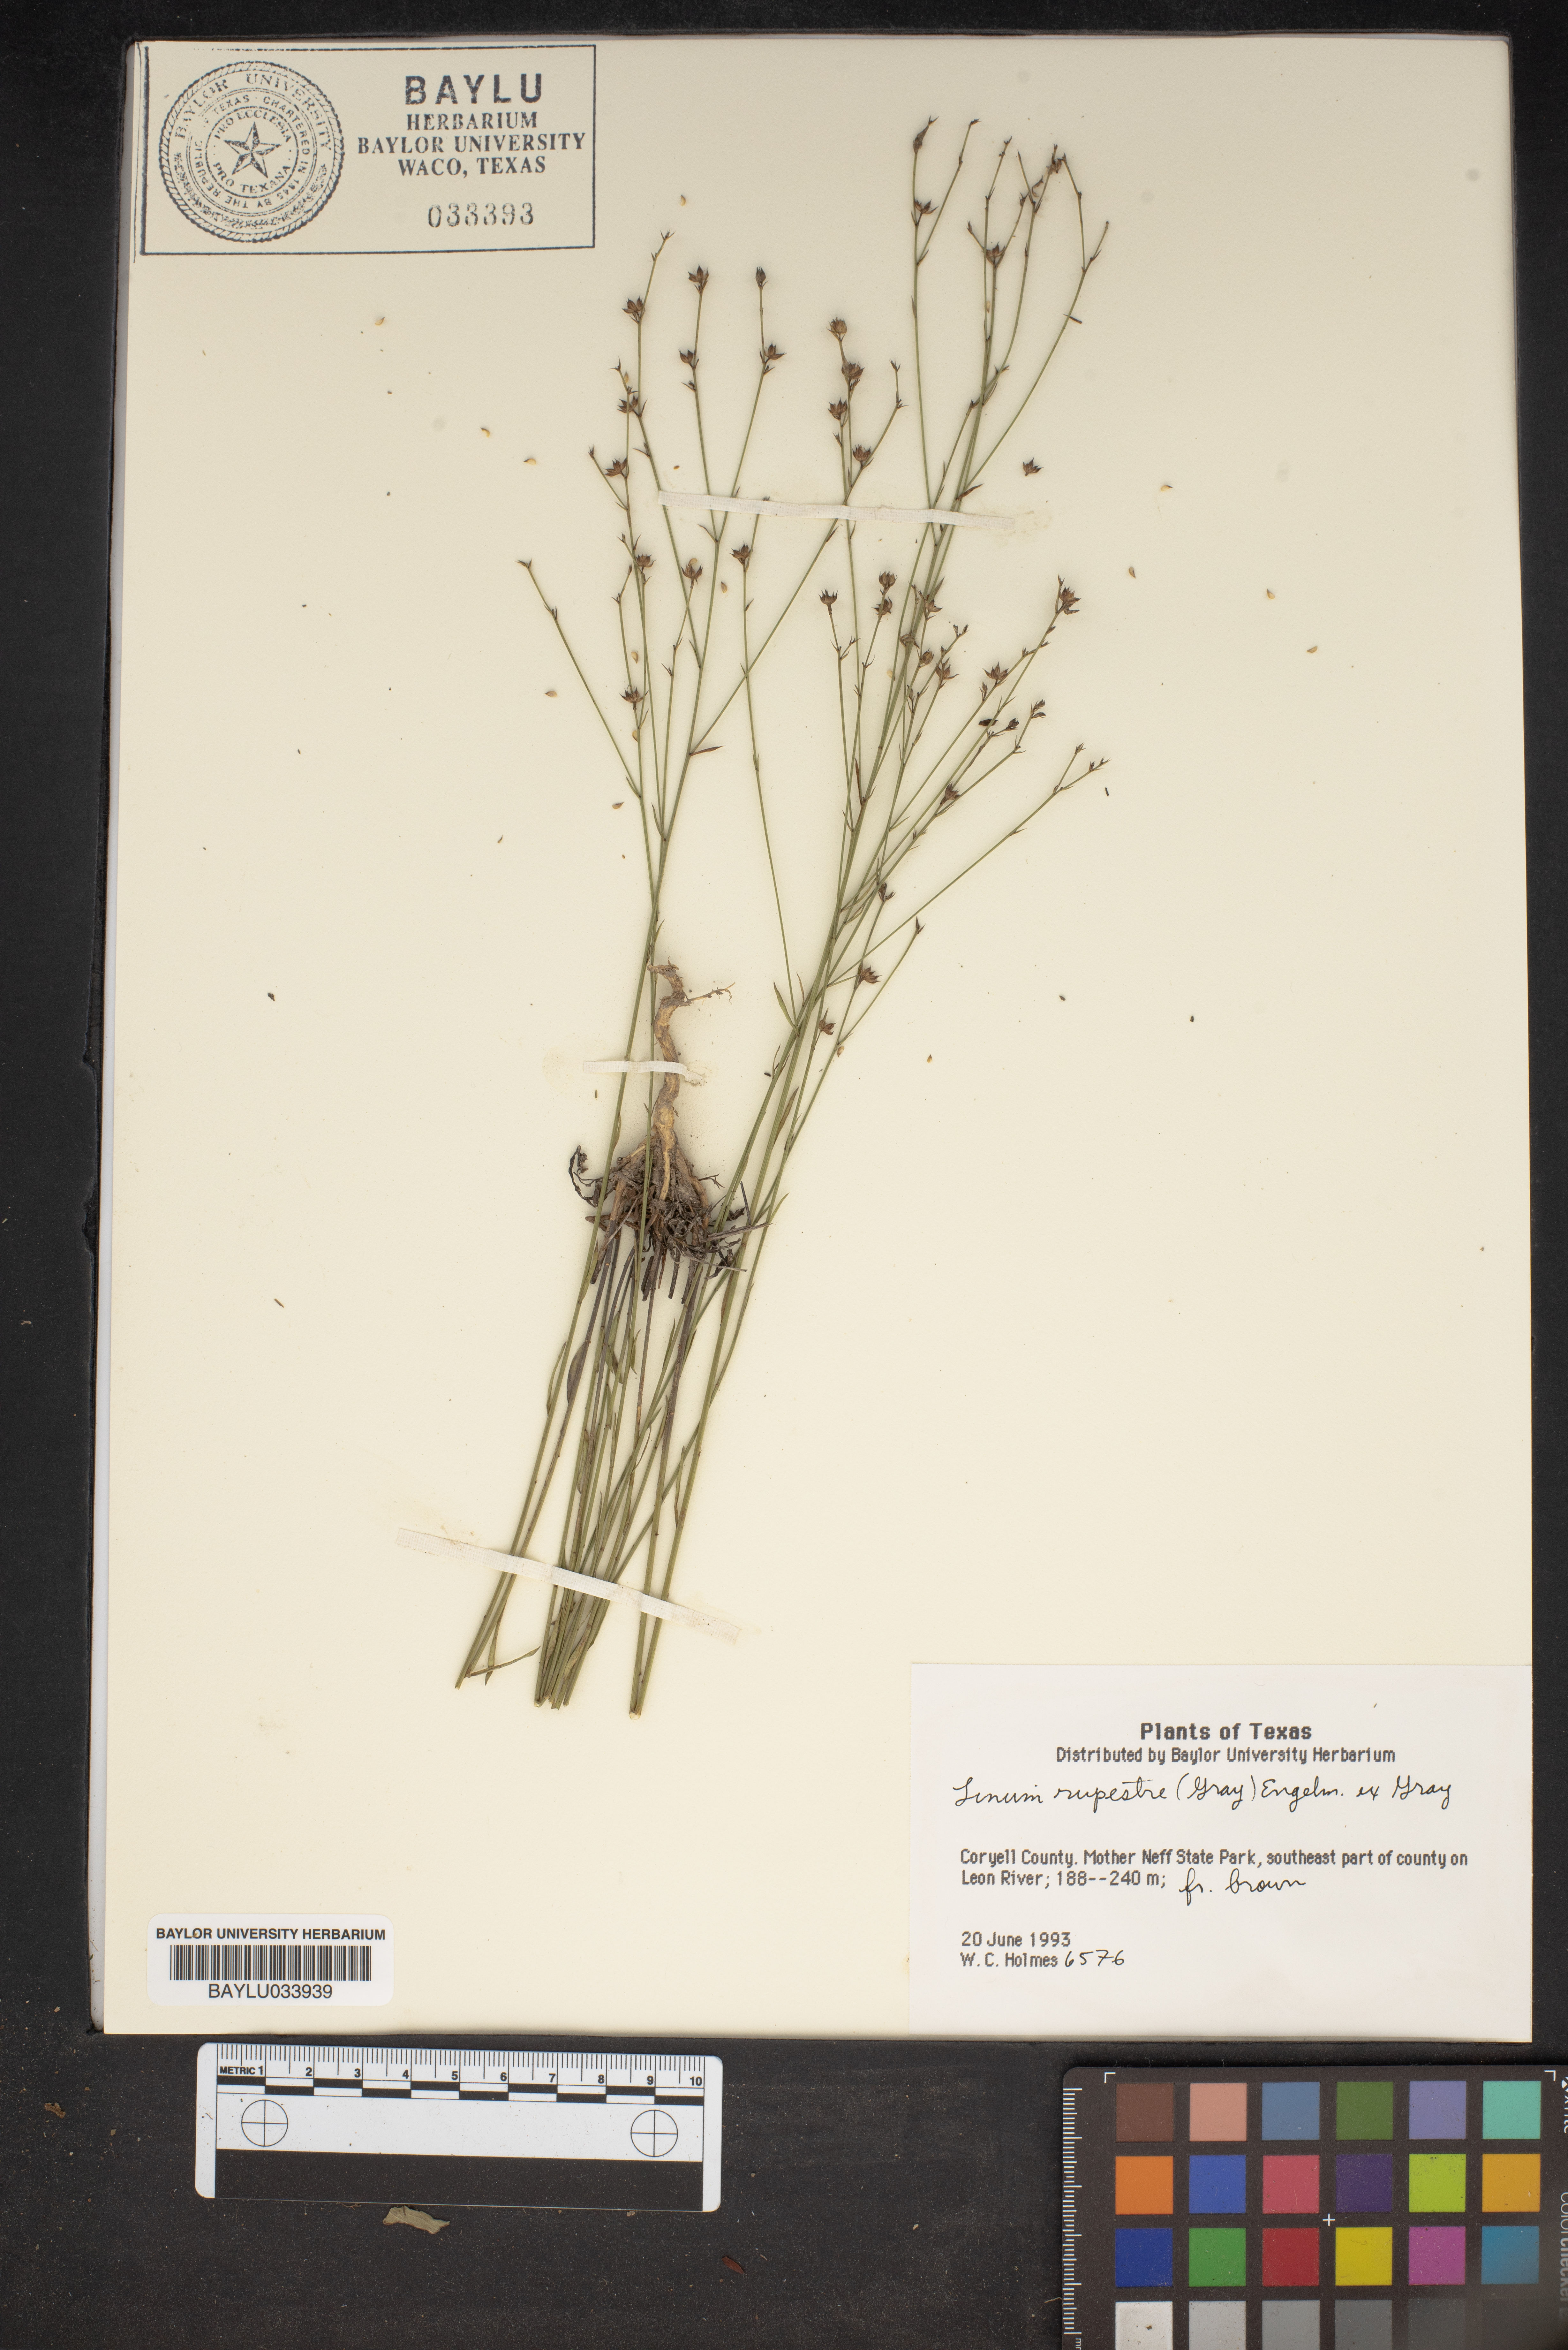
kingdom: Plantae
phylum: Tracheophyta
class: Magnoliopsida
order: Malpighiales
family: Linaceae
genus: Linum
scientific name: Linum rupestre
